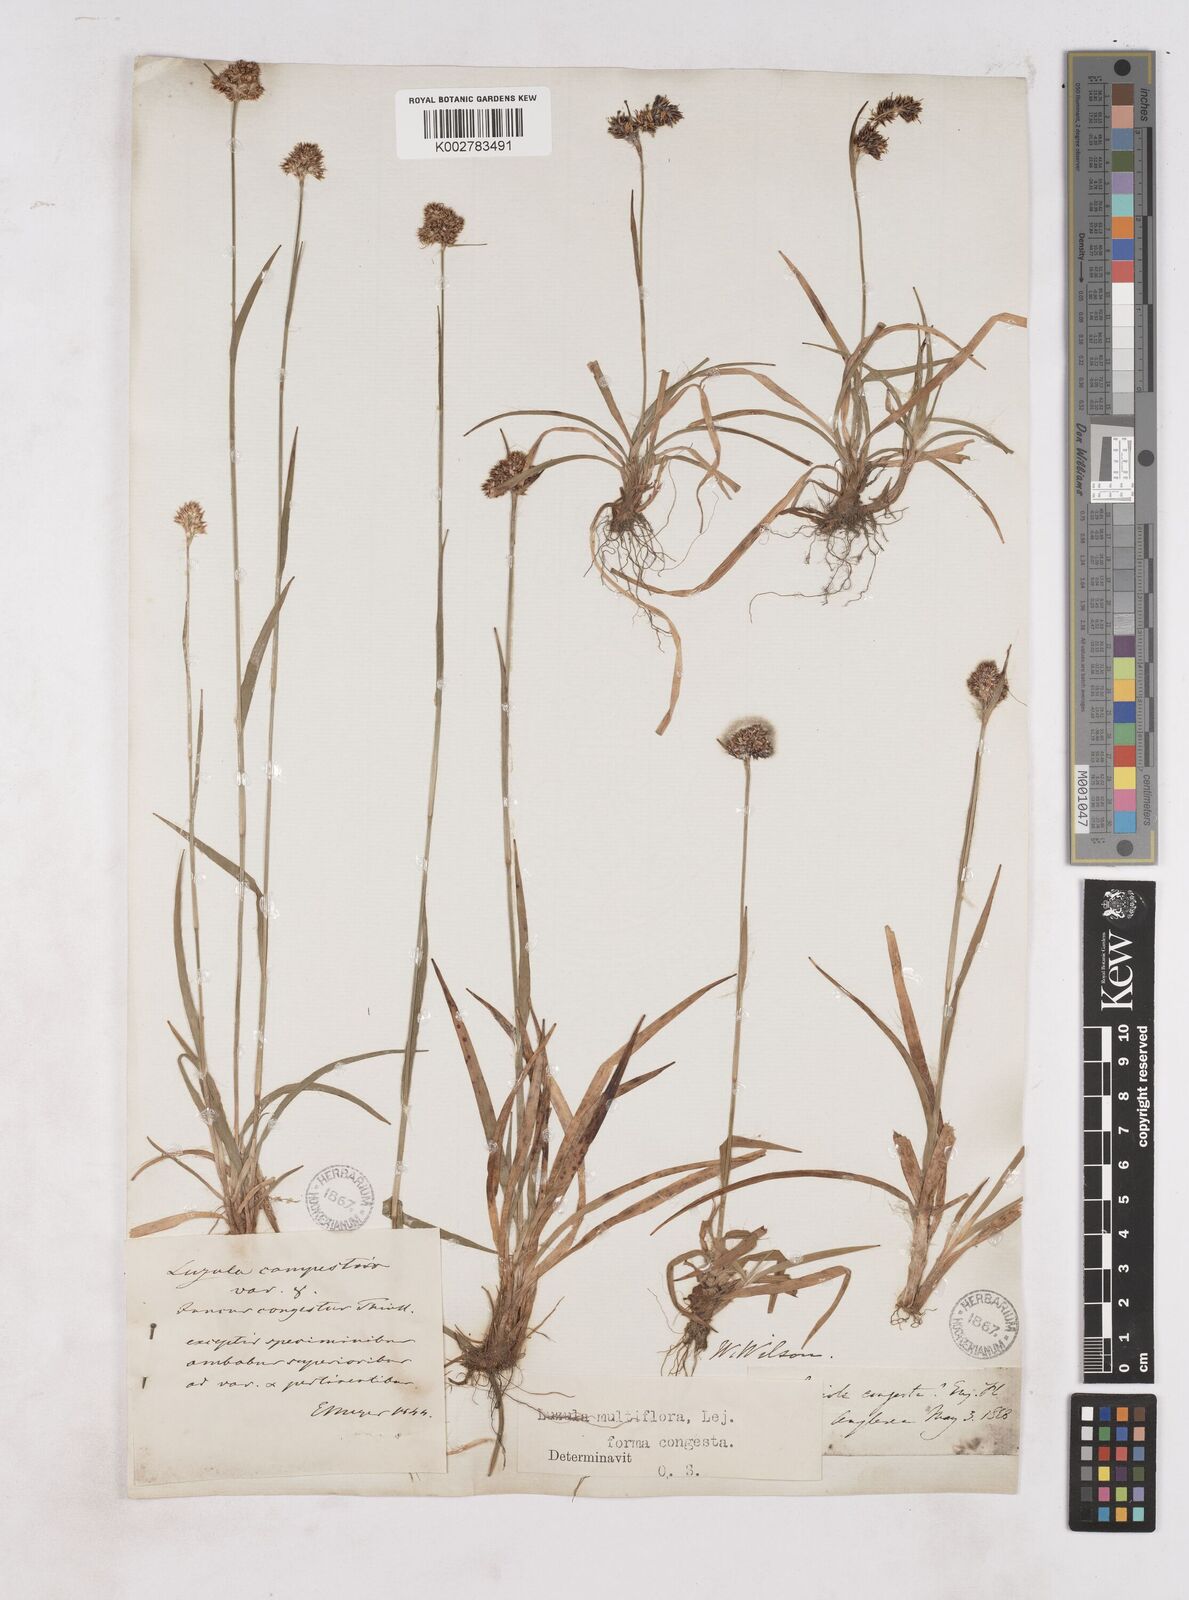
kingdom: Plantae
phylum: Tracheophyta
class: Liliopsida
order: Poales
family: Juncaceae
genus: Luzula
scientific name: Luzula campestris
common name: Field wood-rush
